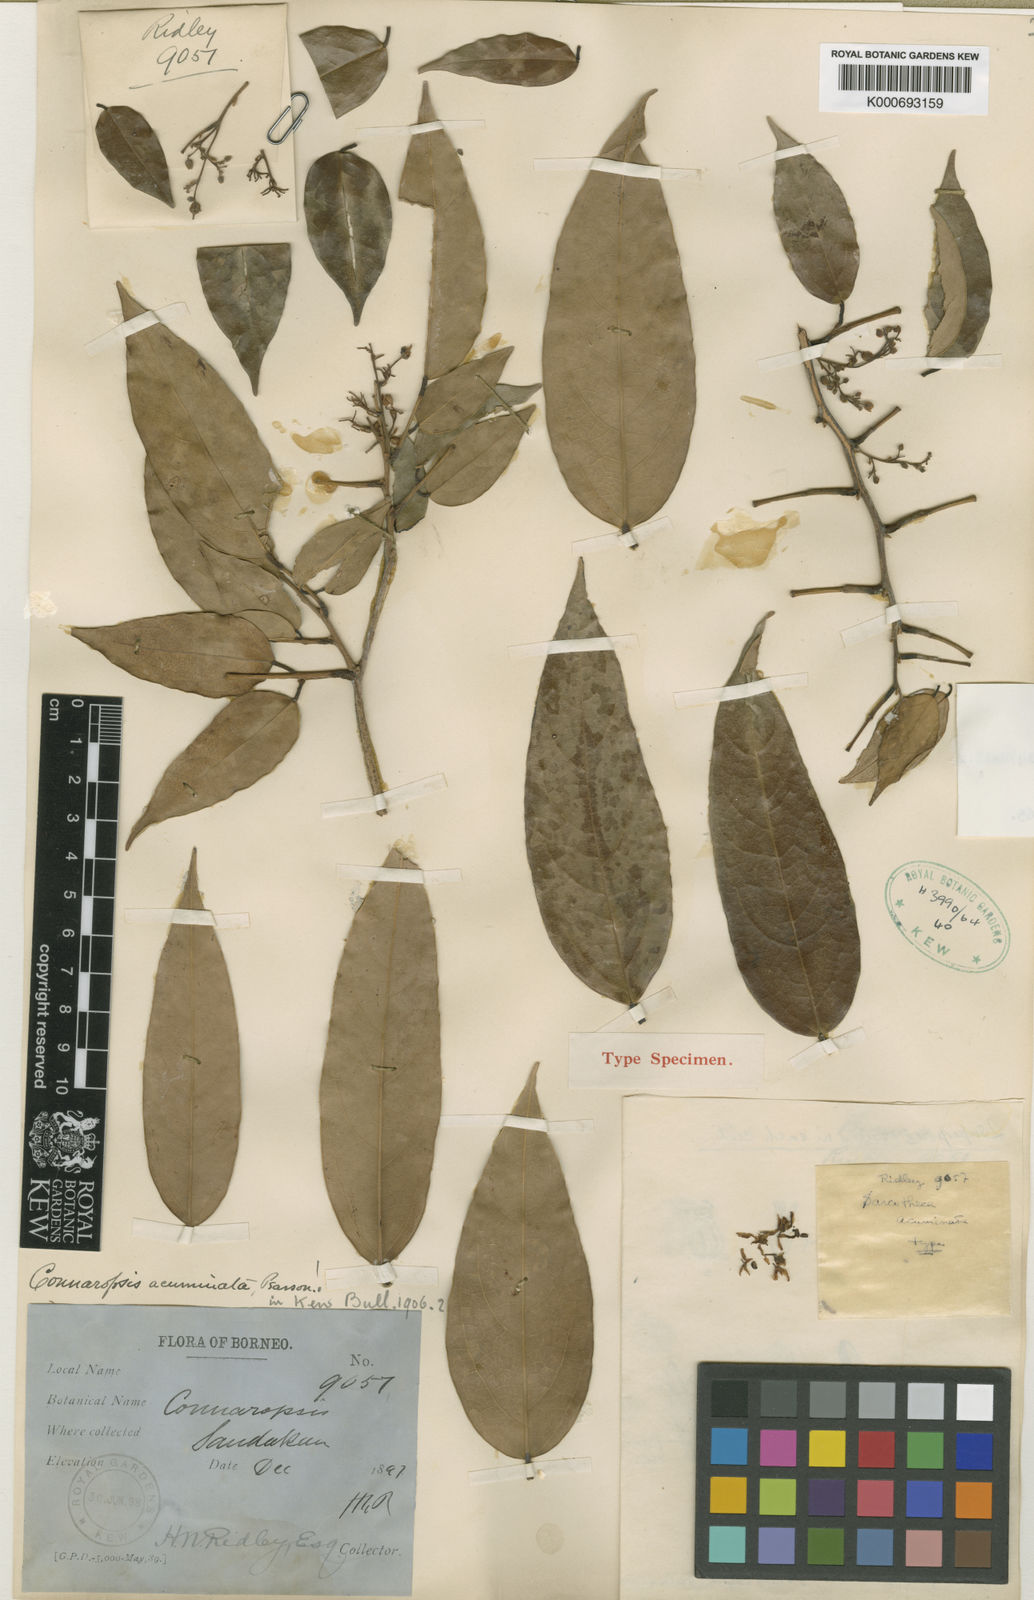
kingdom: Plantae
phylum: Tracheophyta
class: Magnoliopsida
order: Oxalidales
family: Oxalidaceae
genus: Sarcotheca
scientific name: Sarcotheca diversifolia
